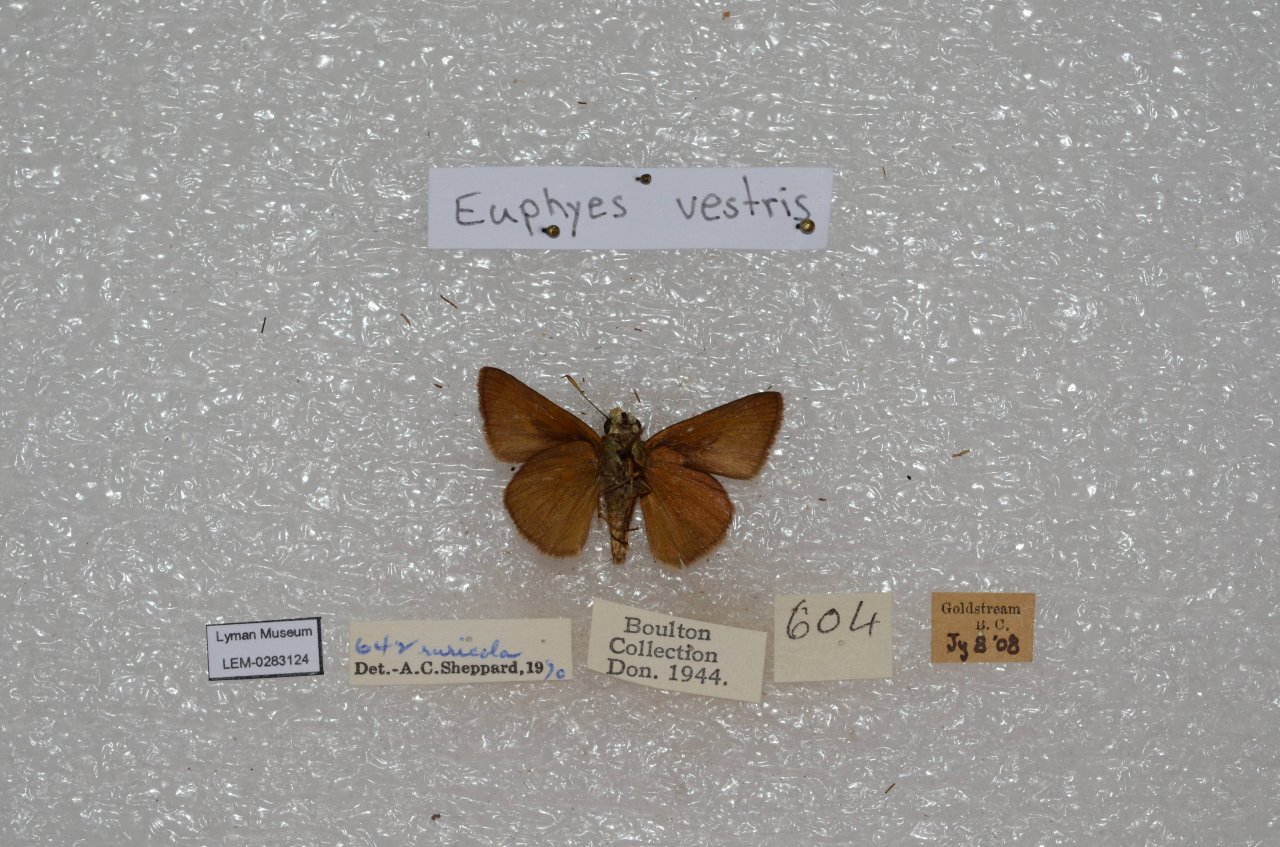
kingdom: Animalia
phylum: Arthropoda
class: Insecta
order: Lepidoptera
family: Hesperiidae
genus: Euphyes
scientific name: Euphyes vestris
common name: Dun Skipper
